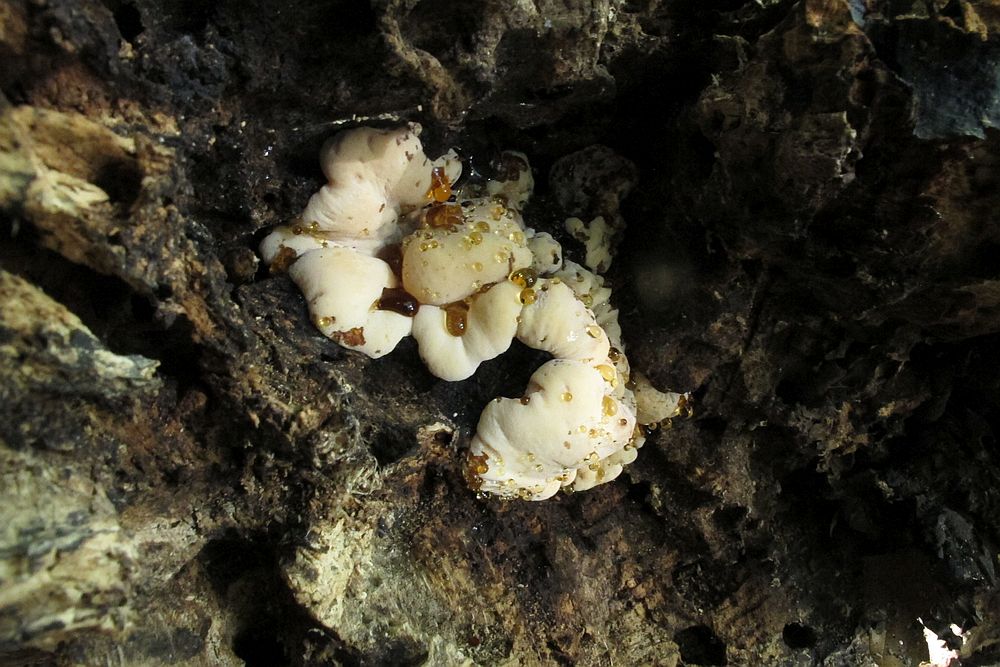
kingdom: Fungi
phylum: Basidiomycota
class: Agaricomycetes
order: Polyporales
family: Ischnodermataceae
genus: Ischnoderma
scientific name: Ischnoderma resinosum
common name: løv-tjæreporesvamp
